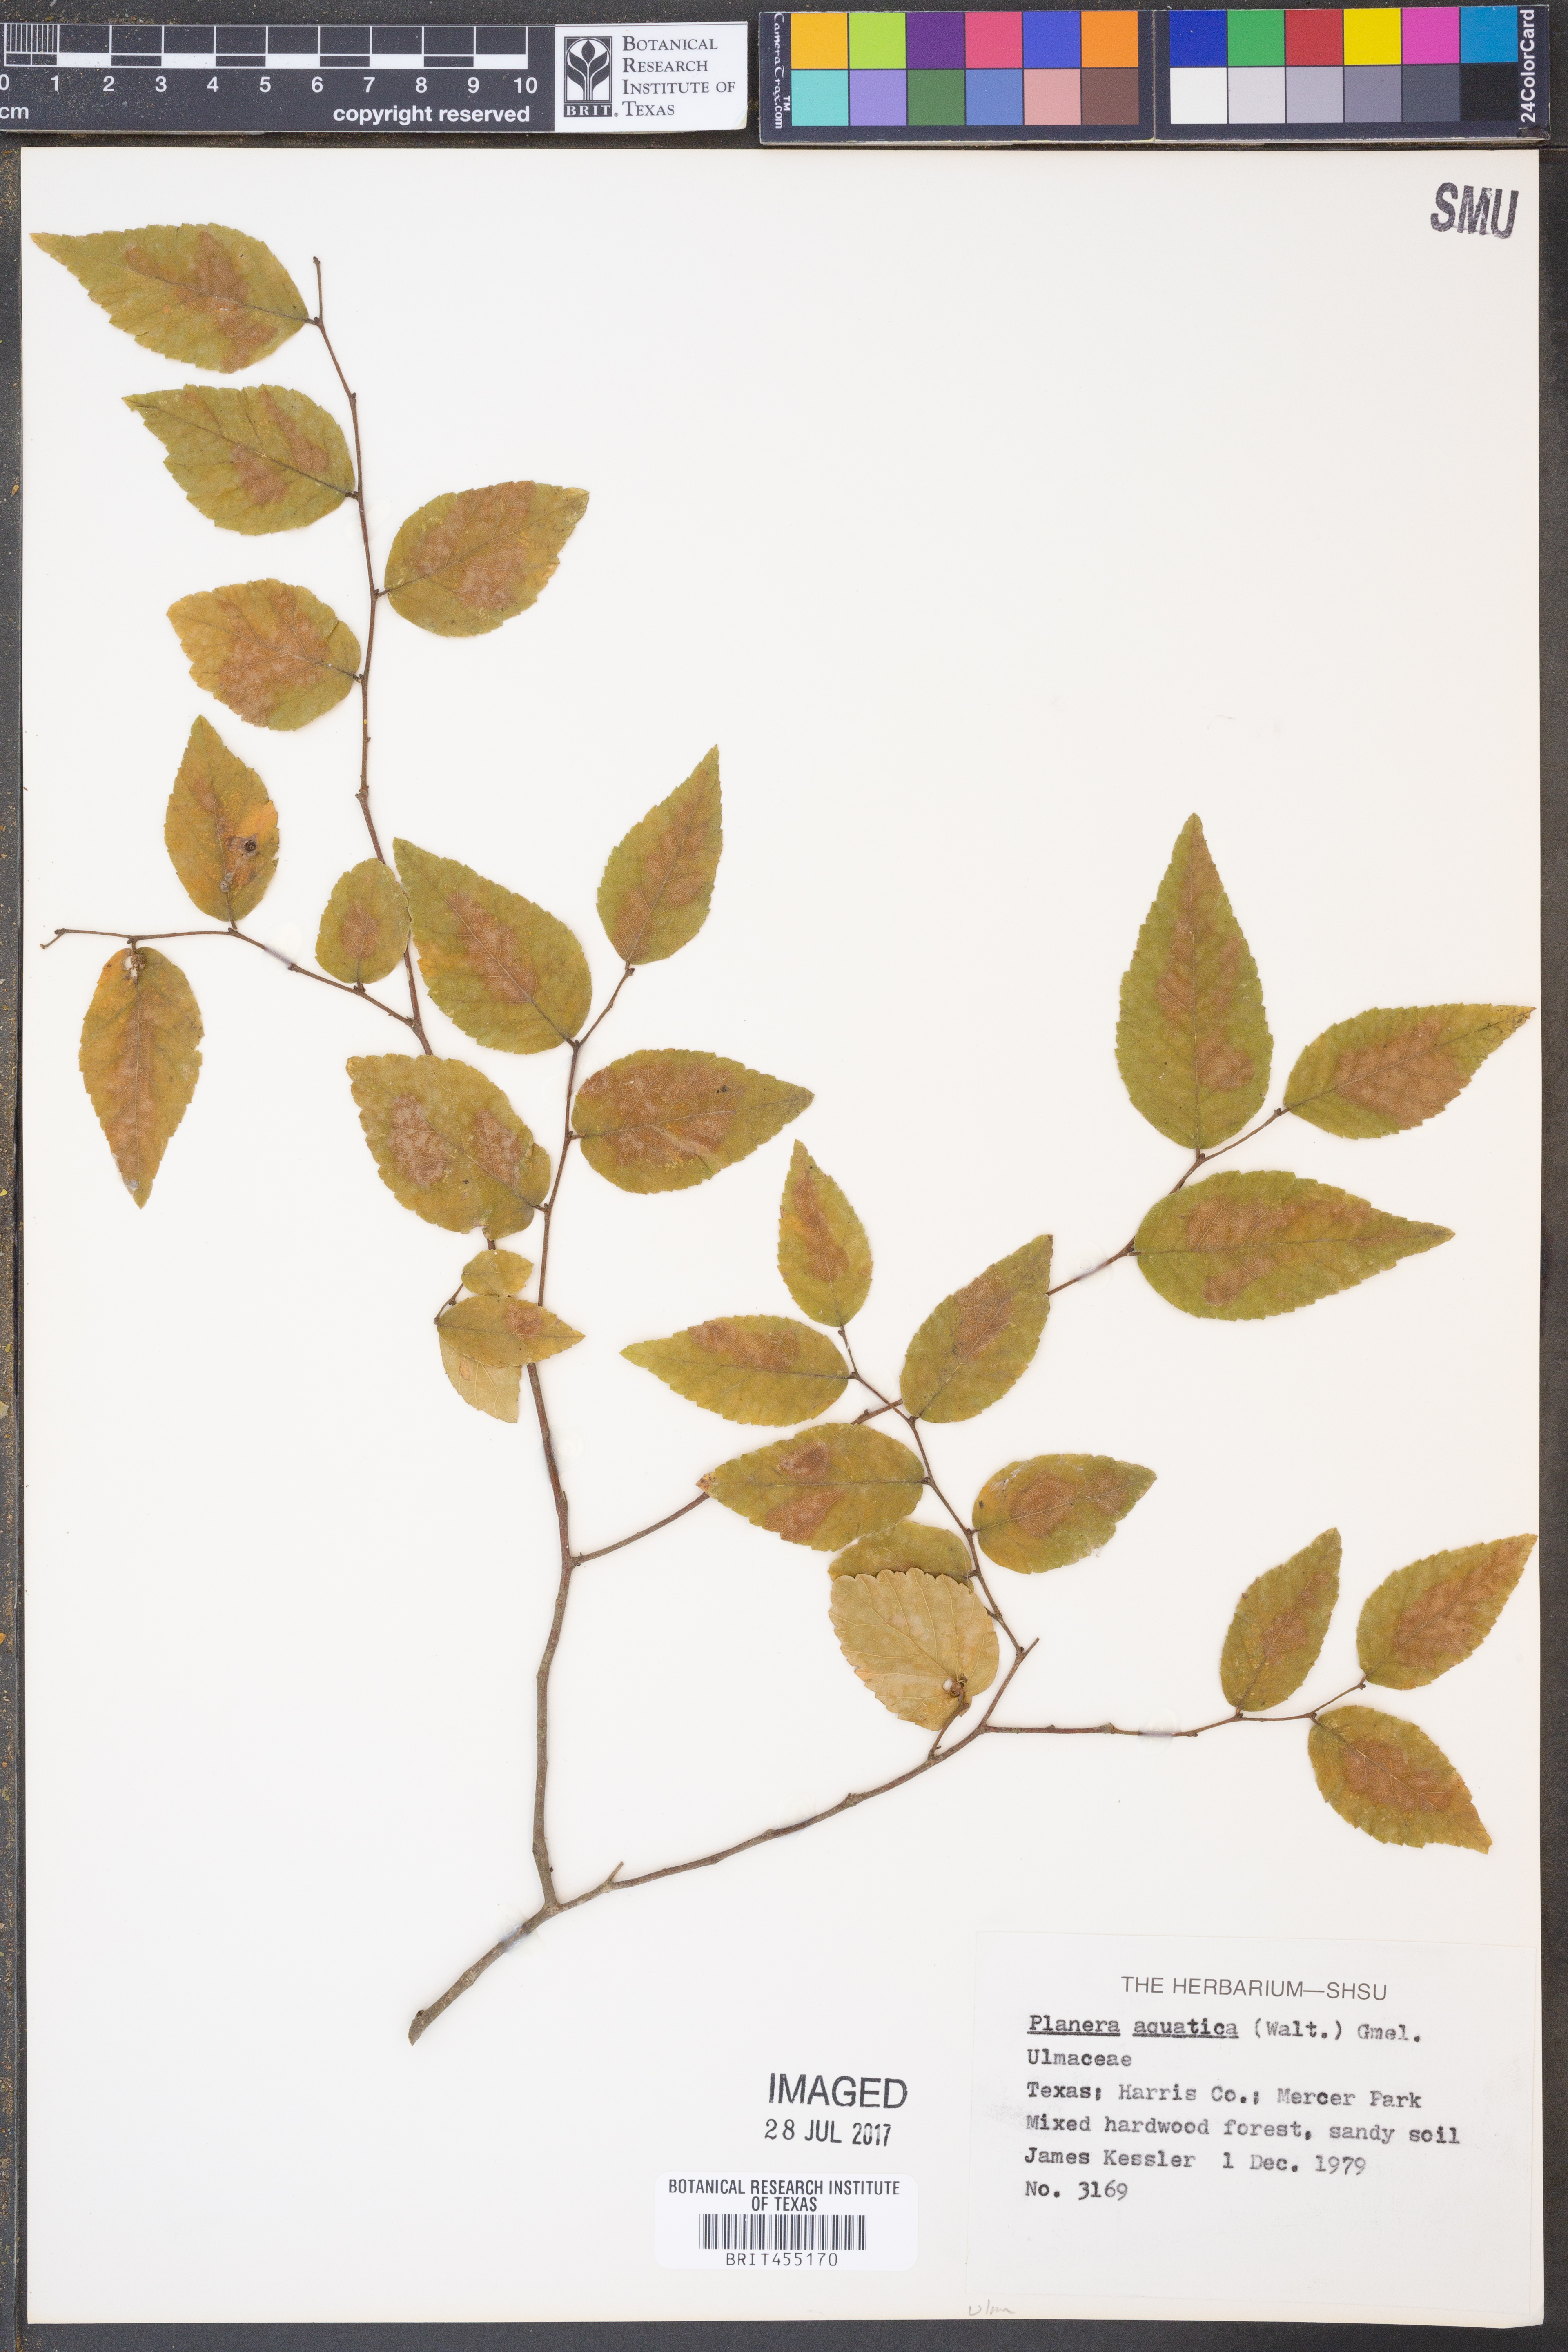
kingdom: Plantae
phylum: Tracheophyta
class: Magnoliopsida
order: Rosales
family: Ulmaceae
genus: Planera
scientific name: Planera aquatica
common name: Water-elm
